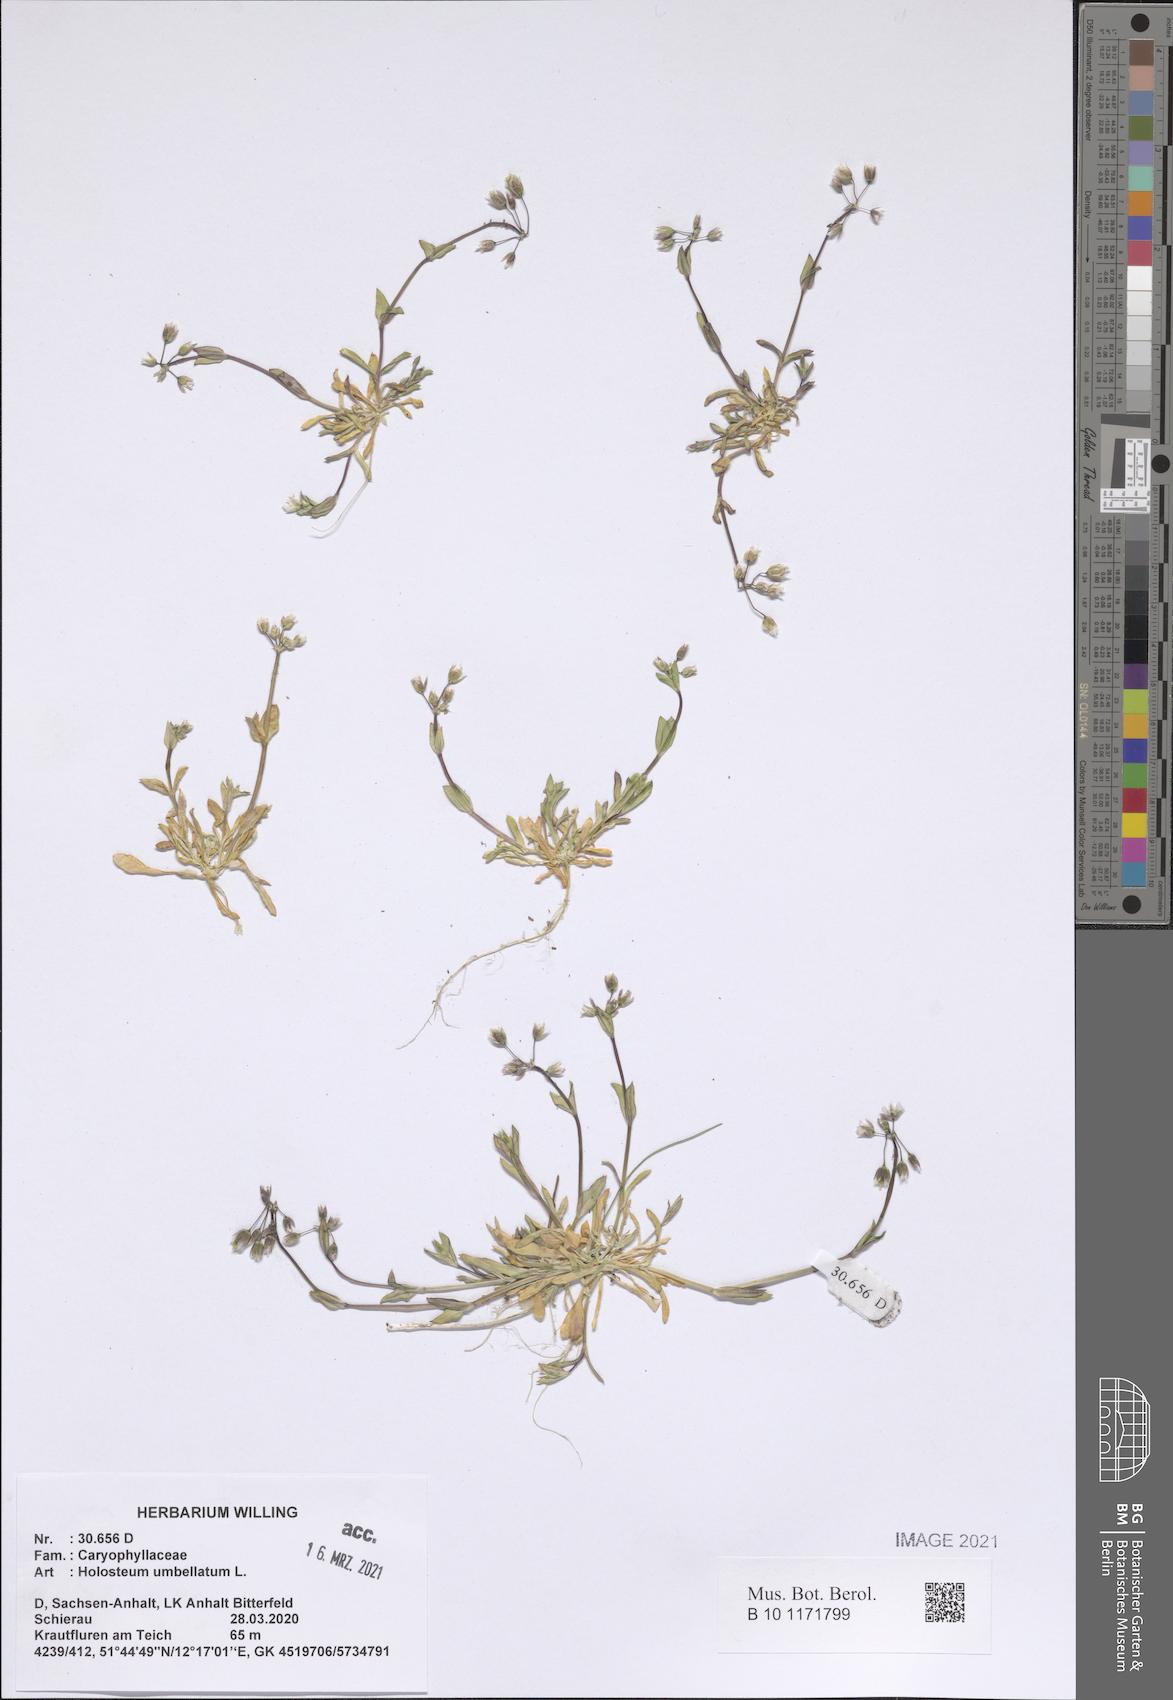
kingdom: Plantae
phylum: Tracheophyta
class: Magnoliopsida
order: Caryophyllales
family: Caryophyllaceae
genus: Holosteum
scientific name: Holosteum umbellatum
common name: Jagged chickweed
